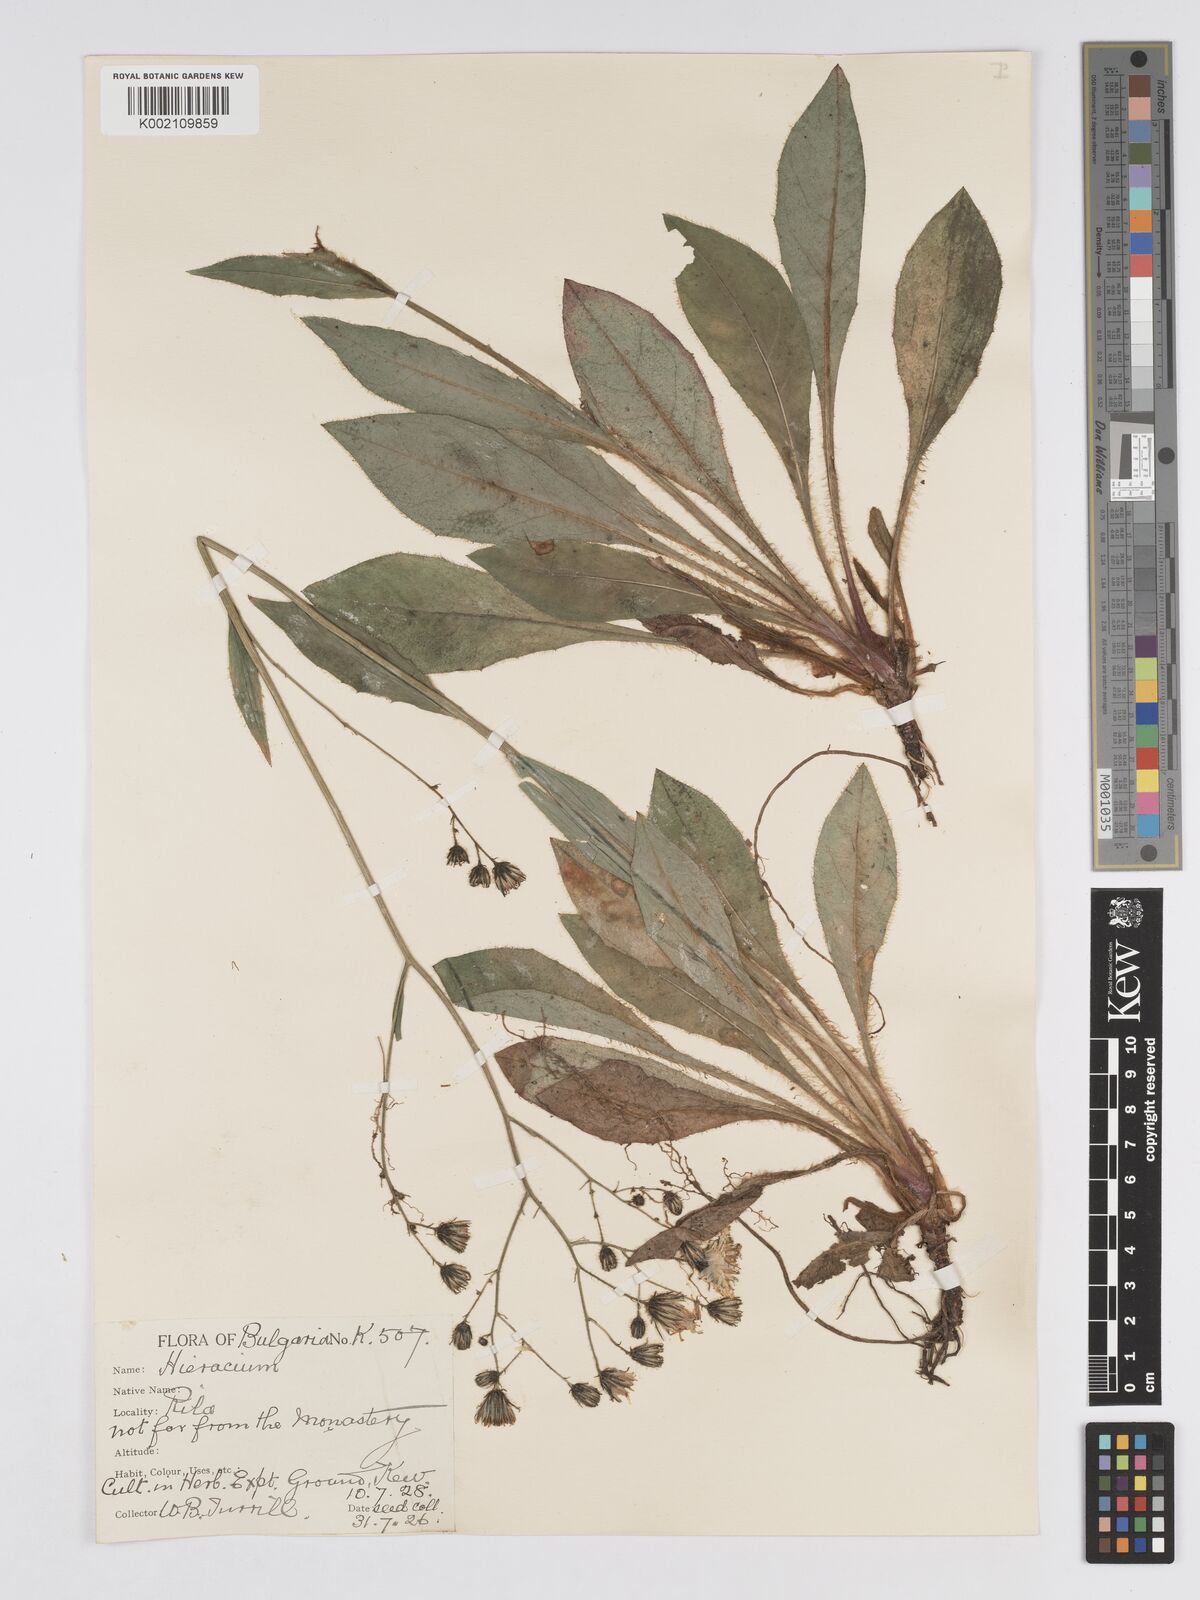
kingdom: Plantae
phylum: Tracheophyta
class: Magnoliopsida
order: Asterales
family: Asteraceae
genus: Hieracium
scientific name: Hieracium djimilense
